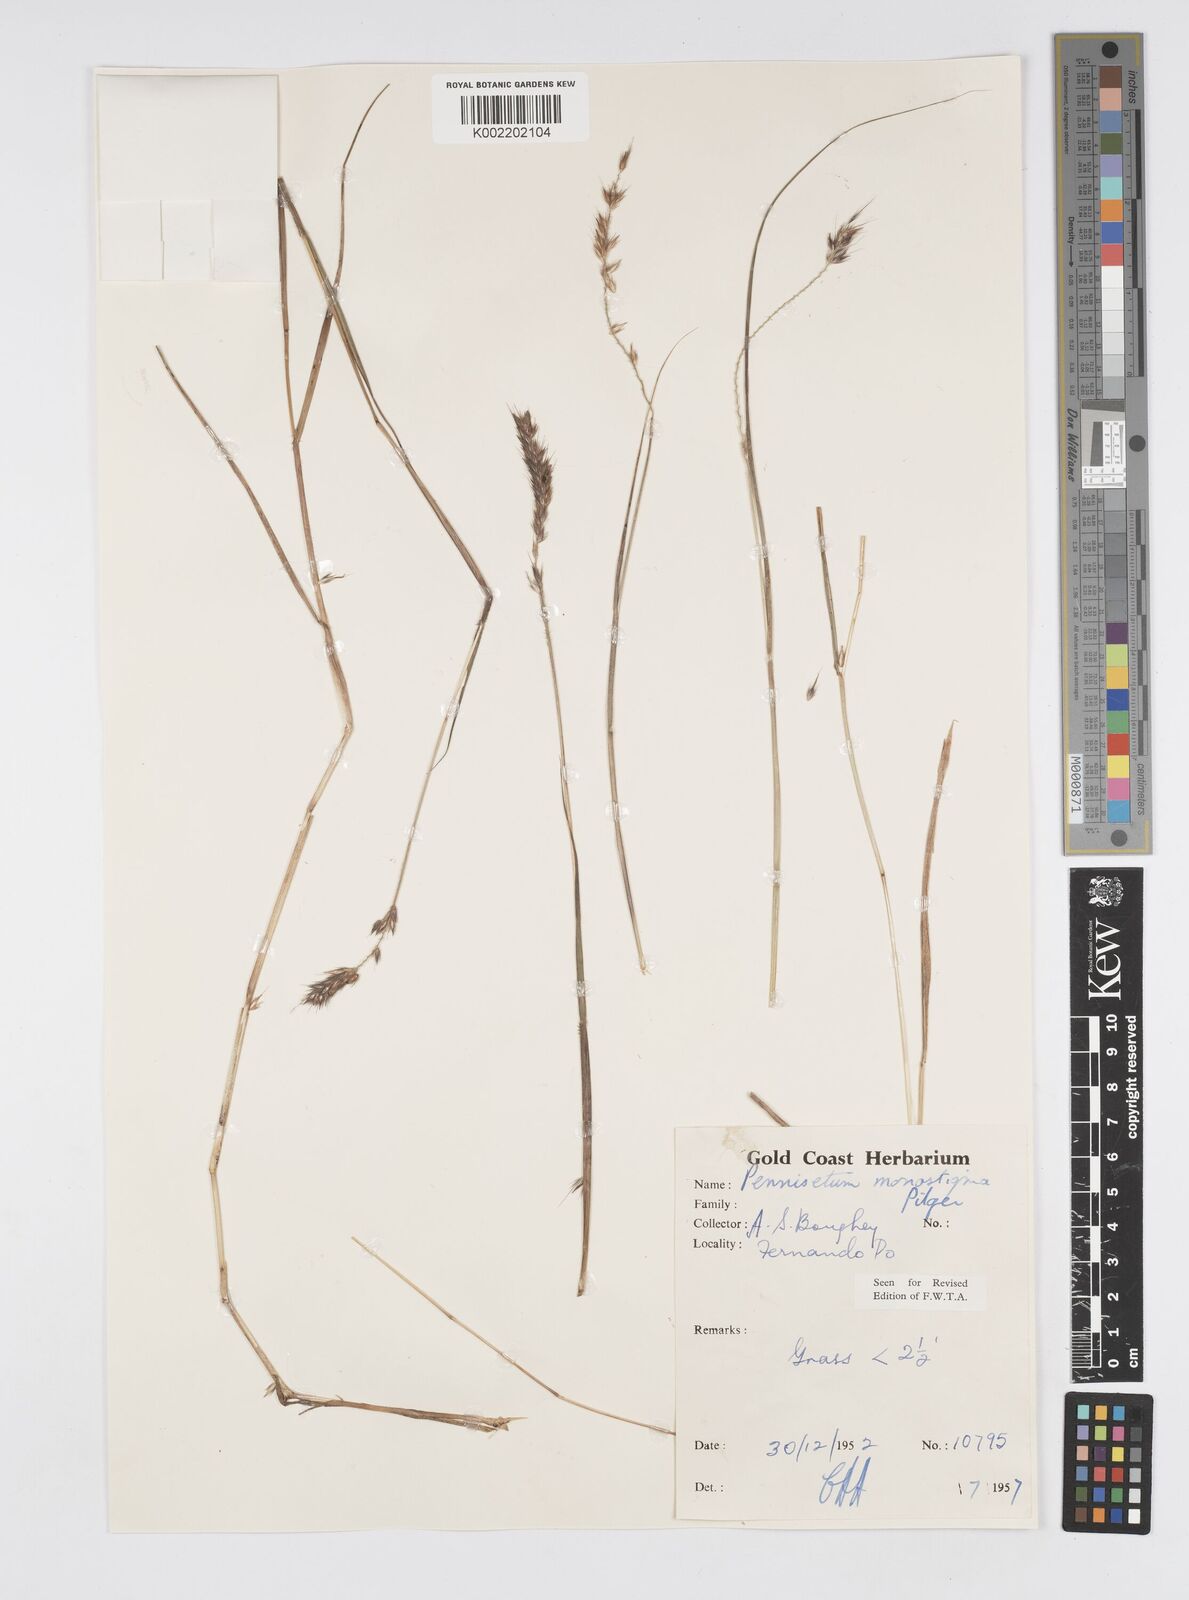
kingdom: Plantae
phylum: Tracheophyta
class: Liliopsida
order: Poales
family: Poaceae
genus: Cenchrus
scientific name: Cenchrus monostigma
